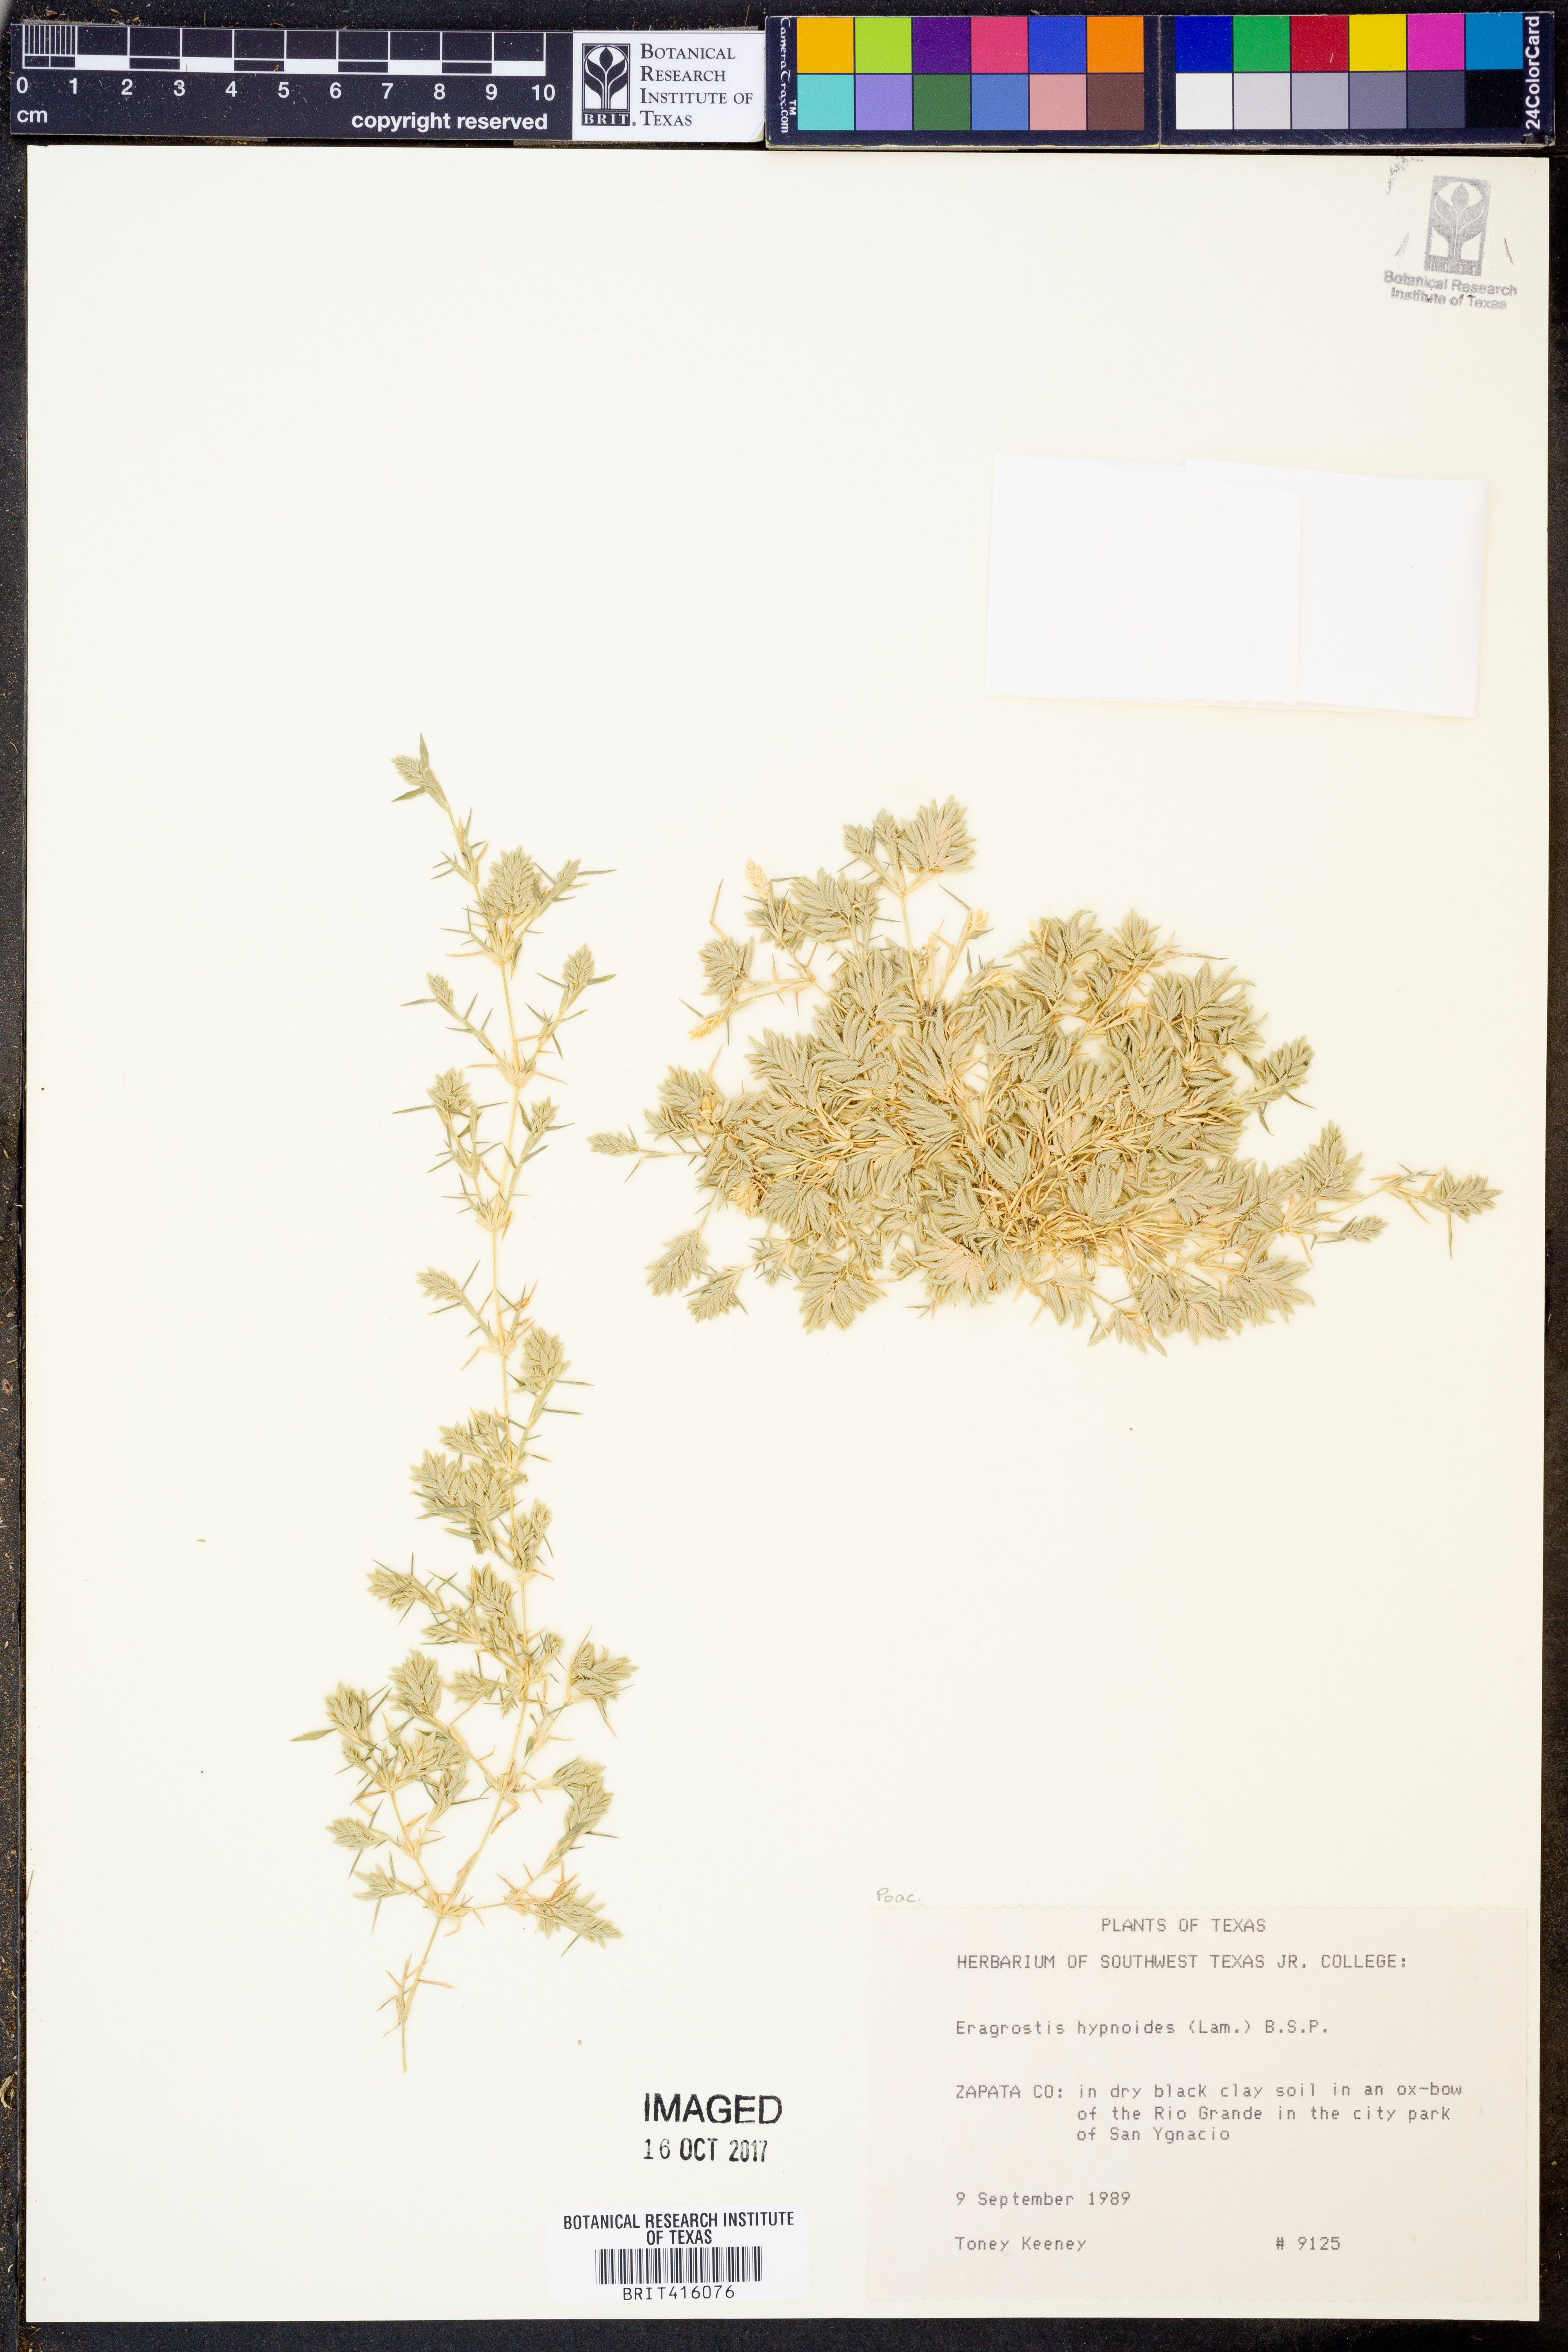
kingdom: Plantae
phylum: Tracheophyta
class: Liliopsida
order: Poales
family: Poaceae
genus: Eragrostis
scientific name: Eragrostis hypnoides
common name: Creeping love grass
